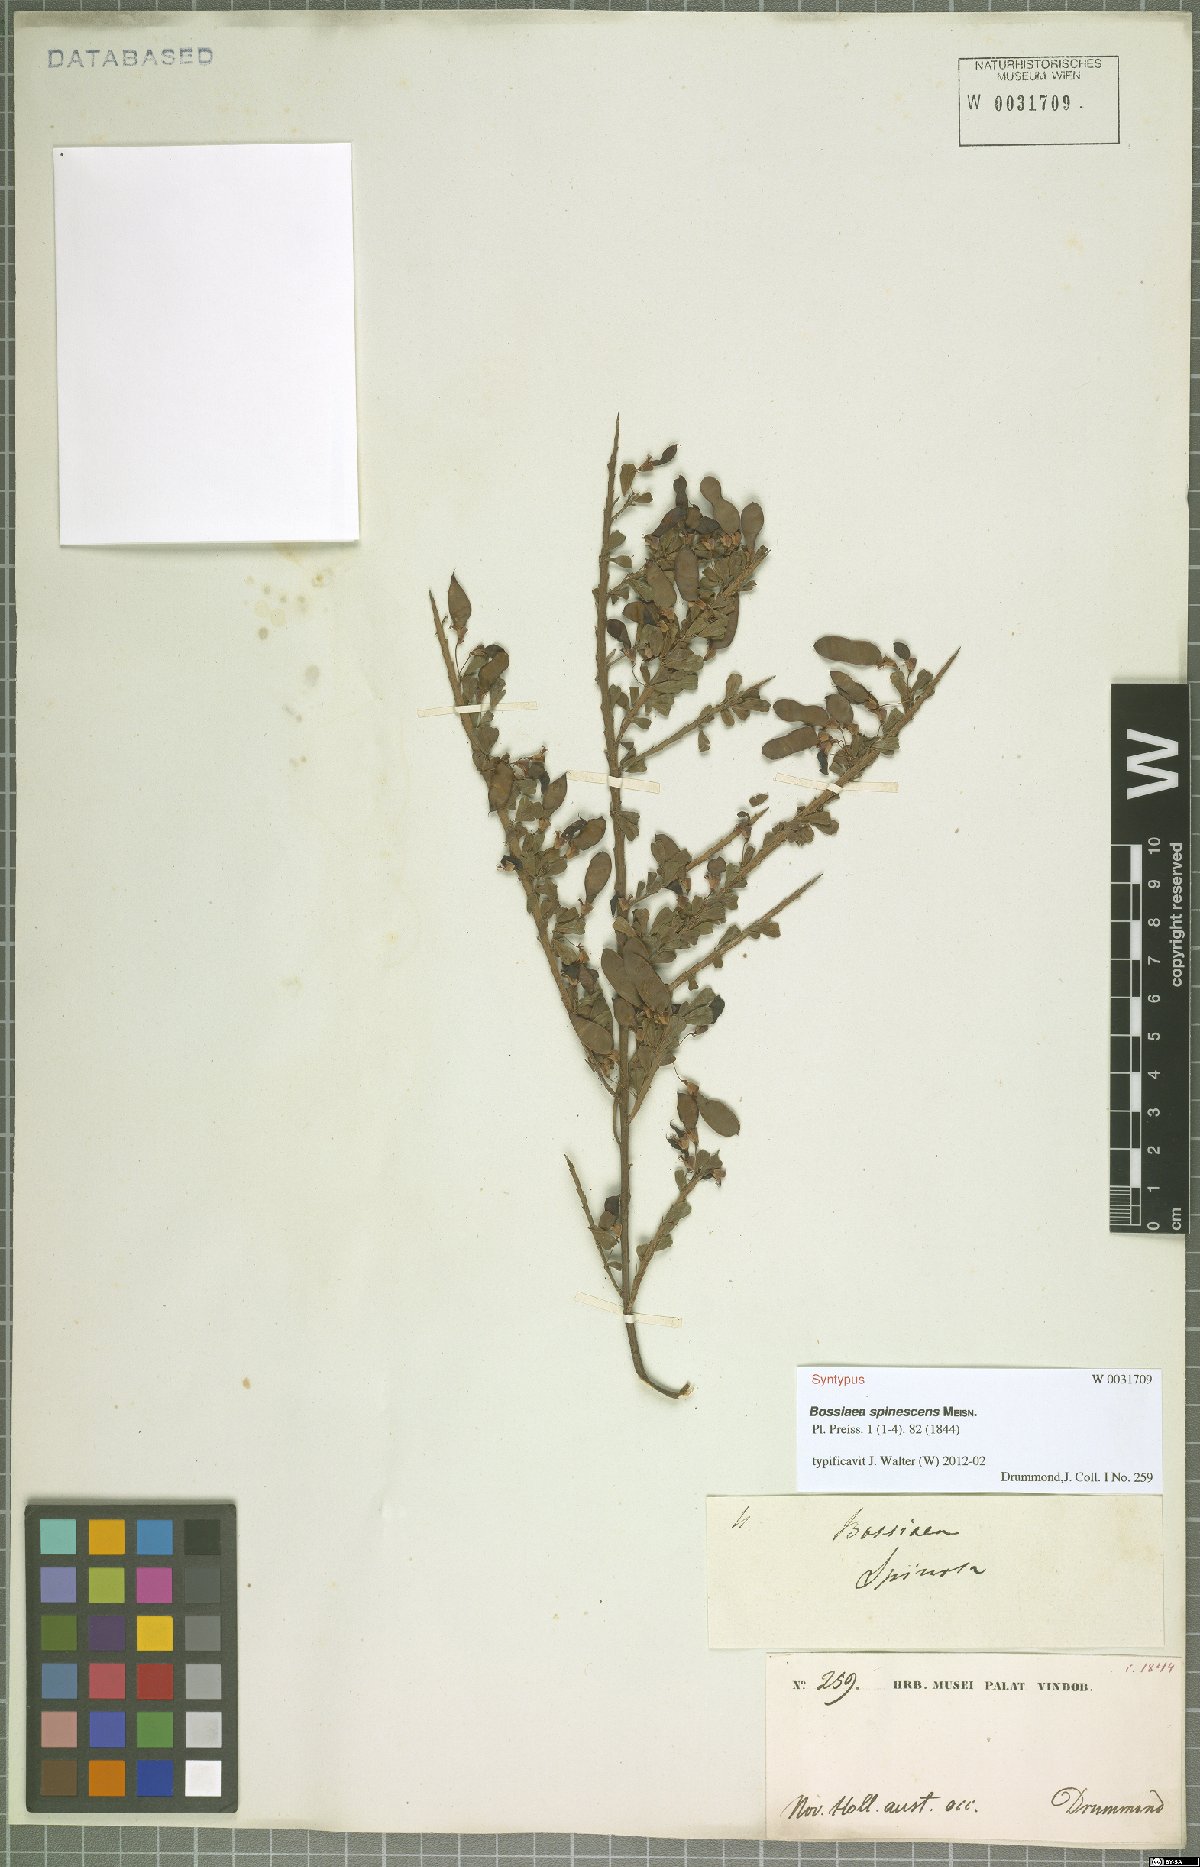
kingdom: Plantae
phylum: Tracheophyta
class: Magnoliopsida
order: Fabales
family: Fabaceae
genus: Bossiaea
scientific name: Bossiaea spinescens
